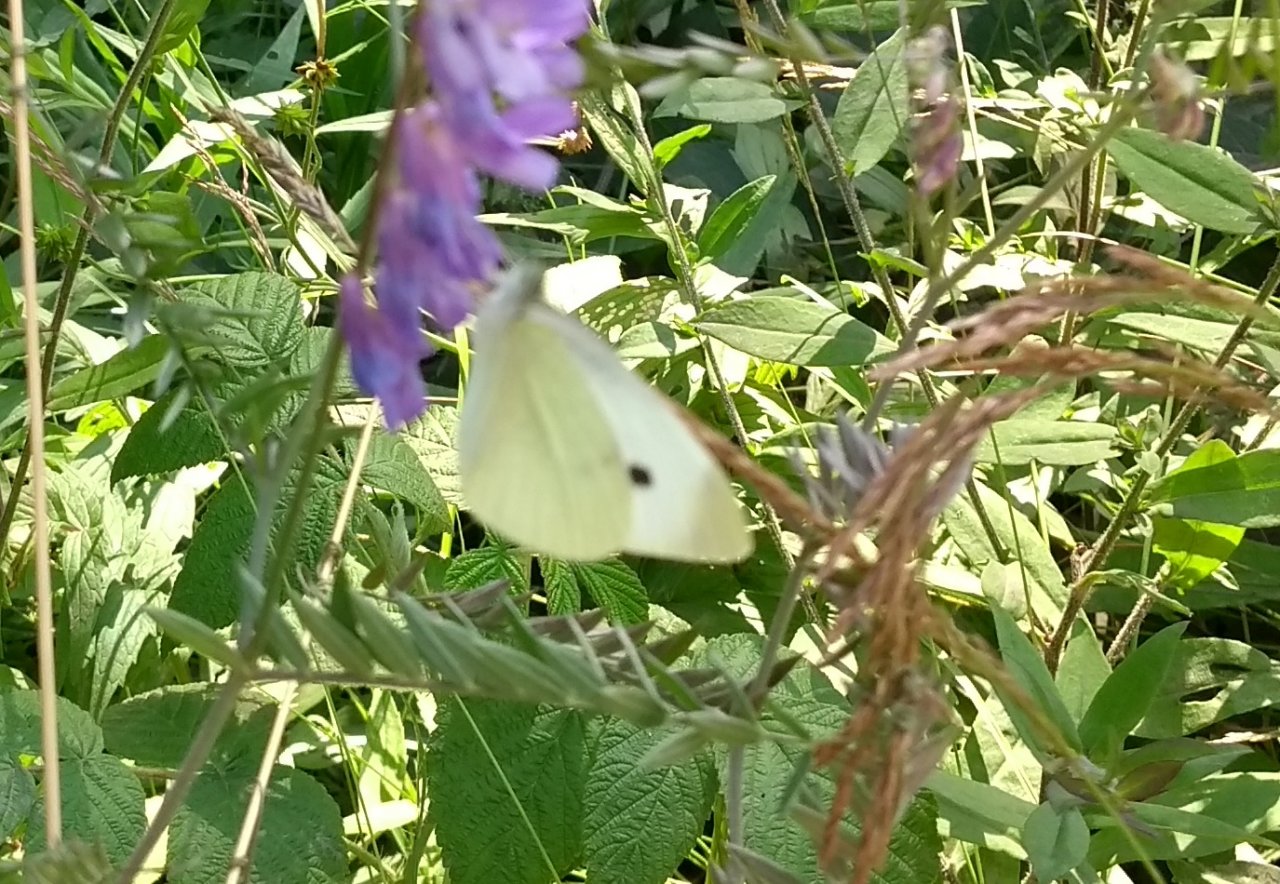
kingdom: Animalia
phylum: Arthropoda
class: Insecta
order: Lepidoptera
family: Pieridae
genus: Pieris
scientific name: Pieris rapae
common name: Cabbage White
